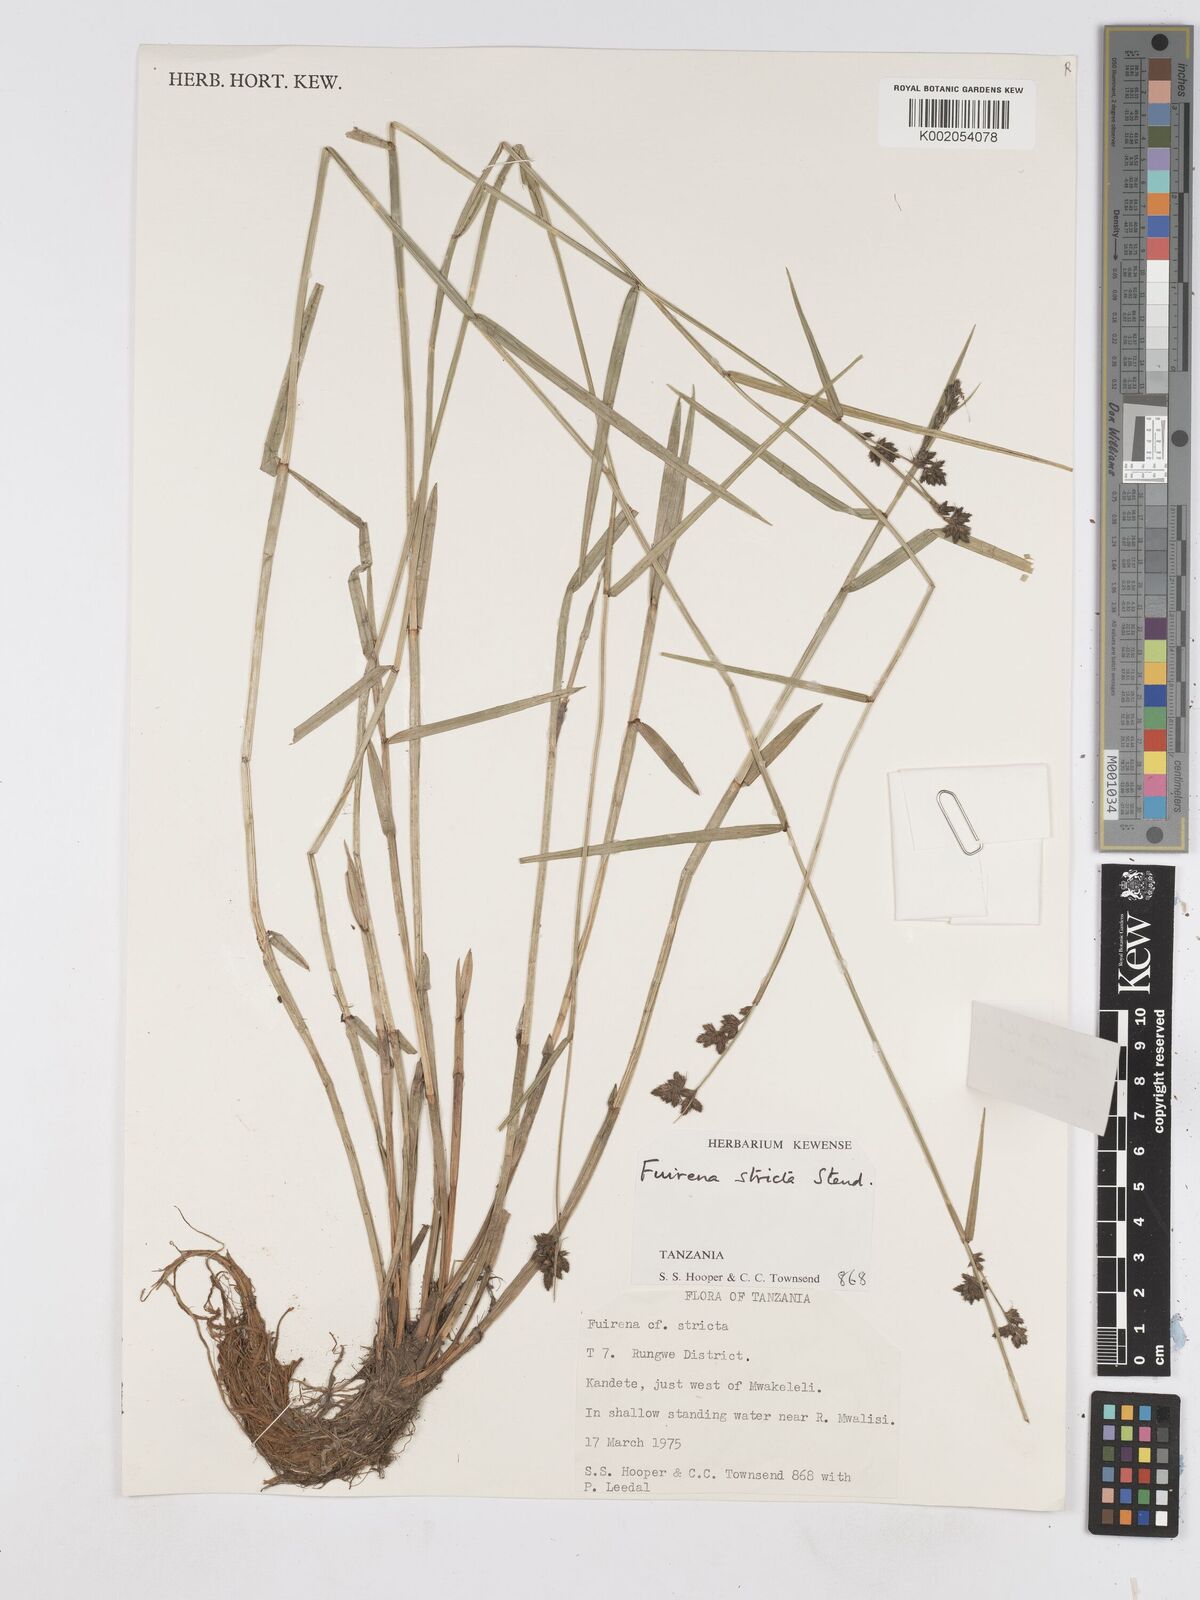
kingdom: Plantae
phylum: Tracheophyta
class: Liliopsida
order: Poales
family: Cyperaceae
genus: Fuirena
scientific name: Fuirena stricta
